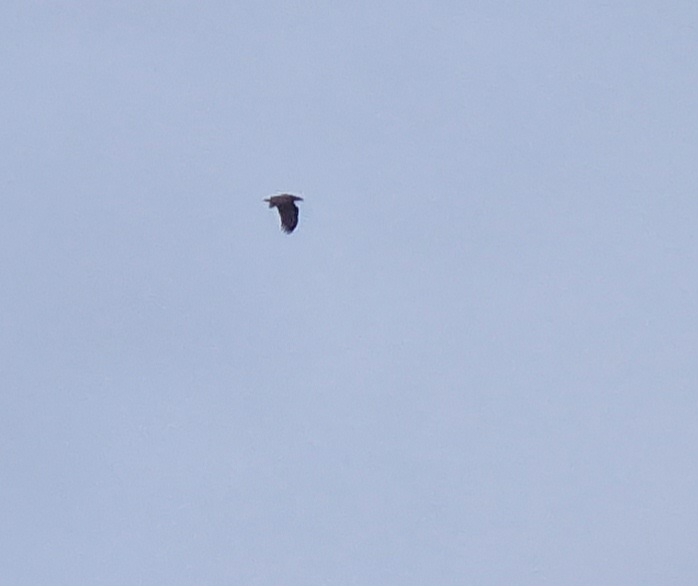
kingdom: Animalia
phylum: Chordata
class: Aves
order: Accipitriformes
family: Accipitridae
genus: Haliaeetus
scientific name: Haliaeetus albicilla
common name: Havørn
